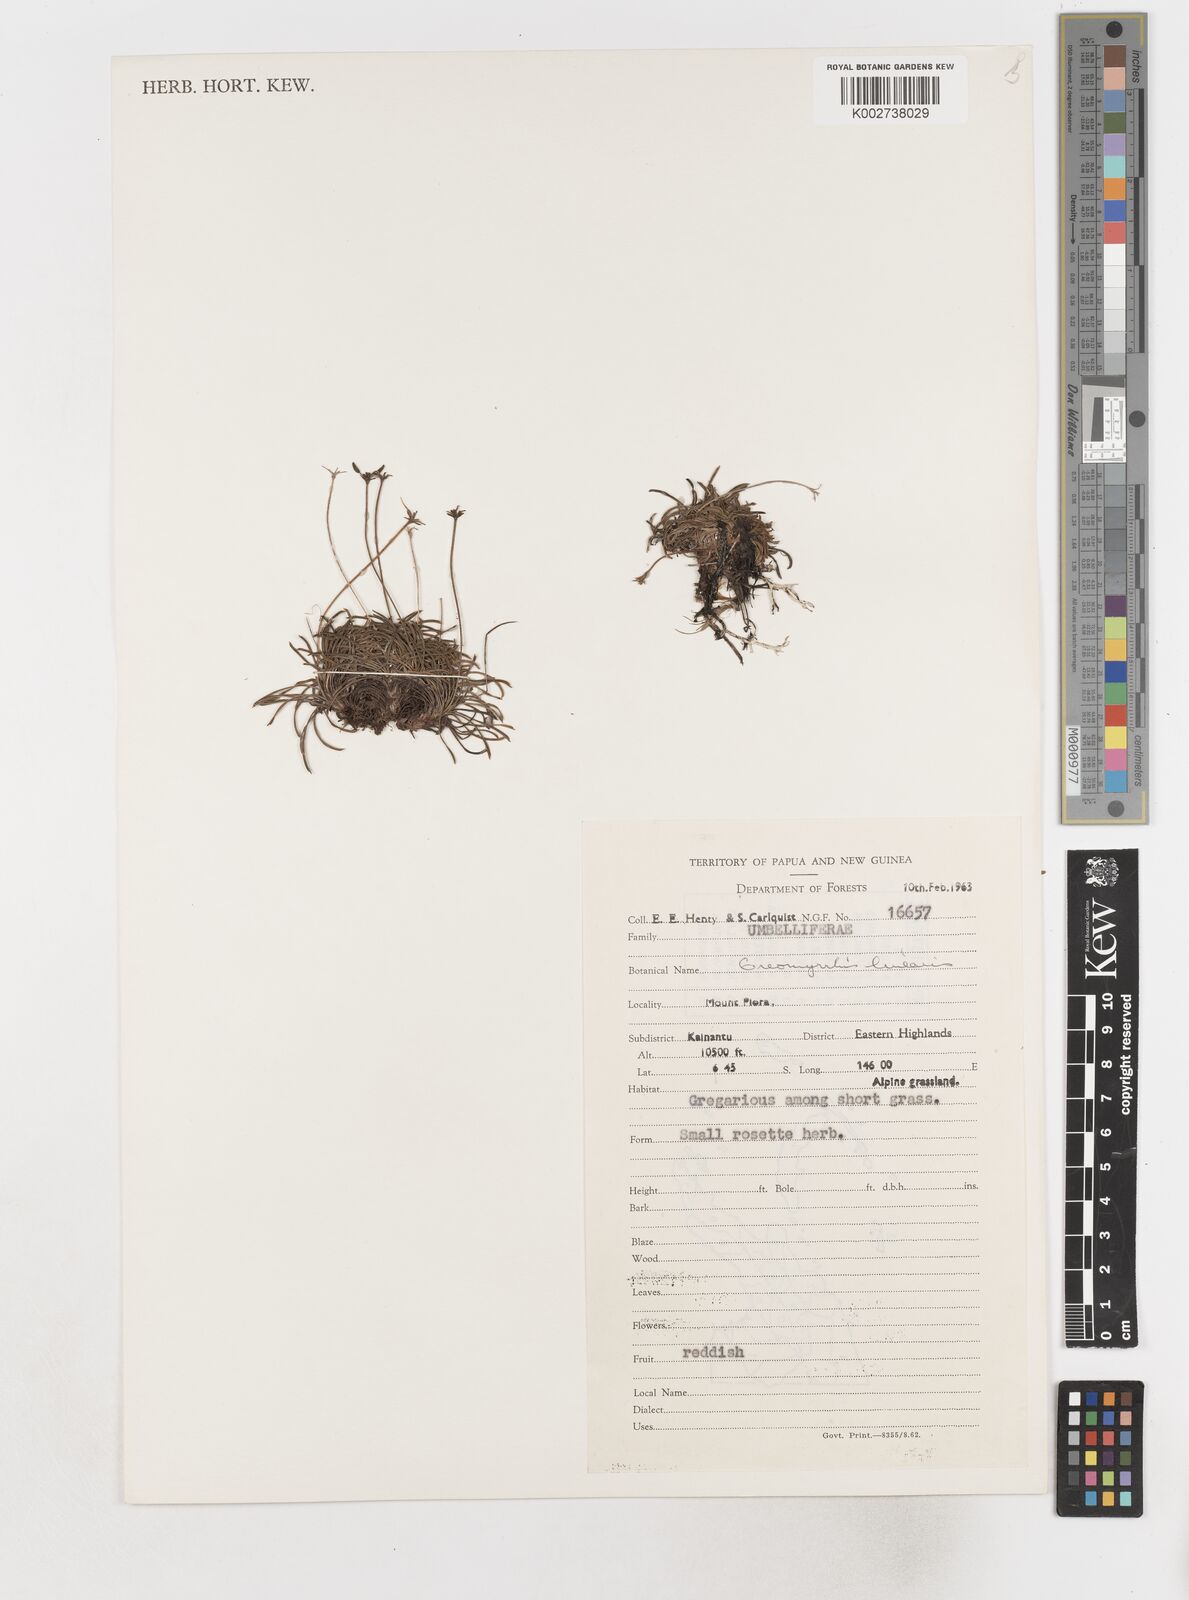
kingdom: Plantae
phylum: Tracheophyta
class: Magnoliopsida
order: Apiales
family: Apiaceae
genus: Chaerophyllum
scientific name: Chaerophyllum lineare
